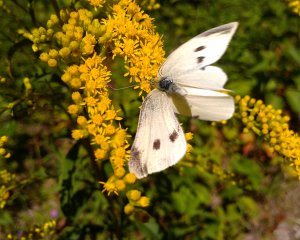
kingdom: Animalia
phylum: Arthropoda
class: Insecta
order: Lepidoptera
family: Pieridae
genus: Pieris
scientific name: Pieris rapae
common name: Cabbage White
